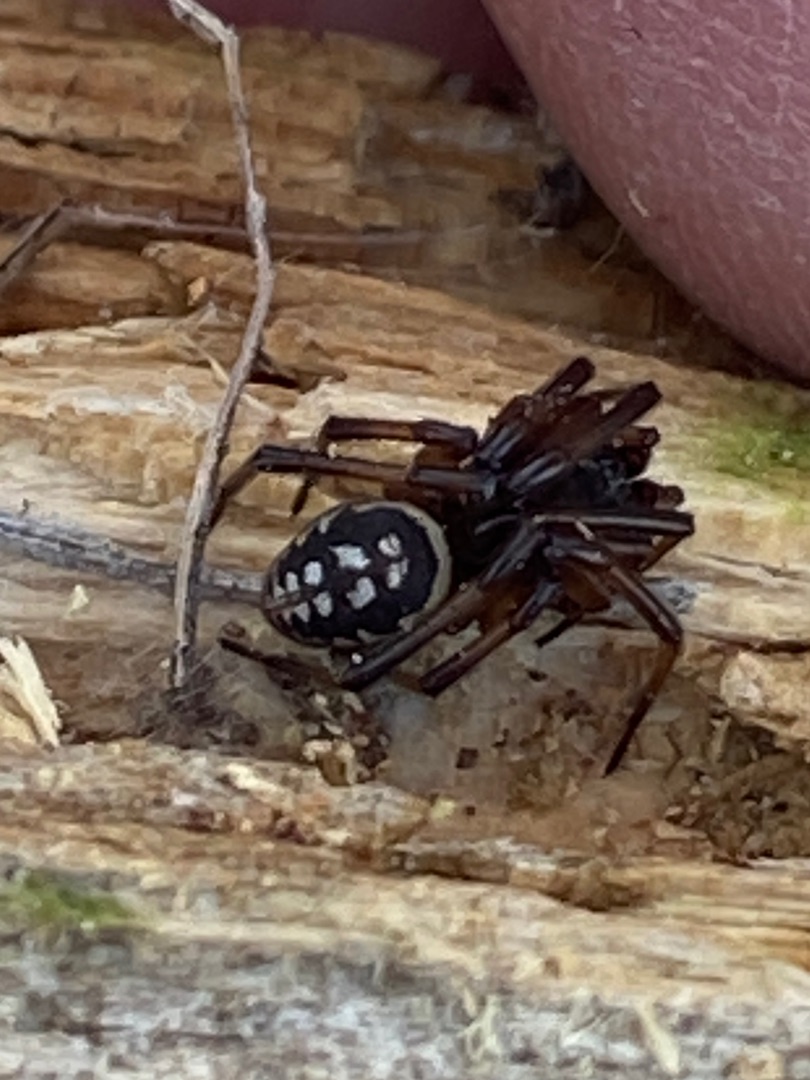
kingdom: Animalia
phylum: Arthropoda
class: Arachnida
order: Araneae
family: Theridiidae
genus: Steatoda
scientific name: Steatoda albomaculata
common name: Hvidplettet voksedderkop
